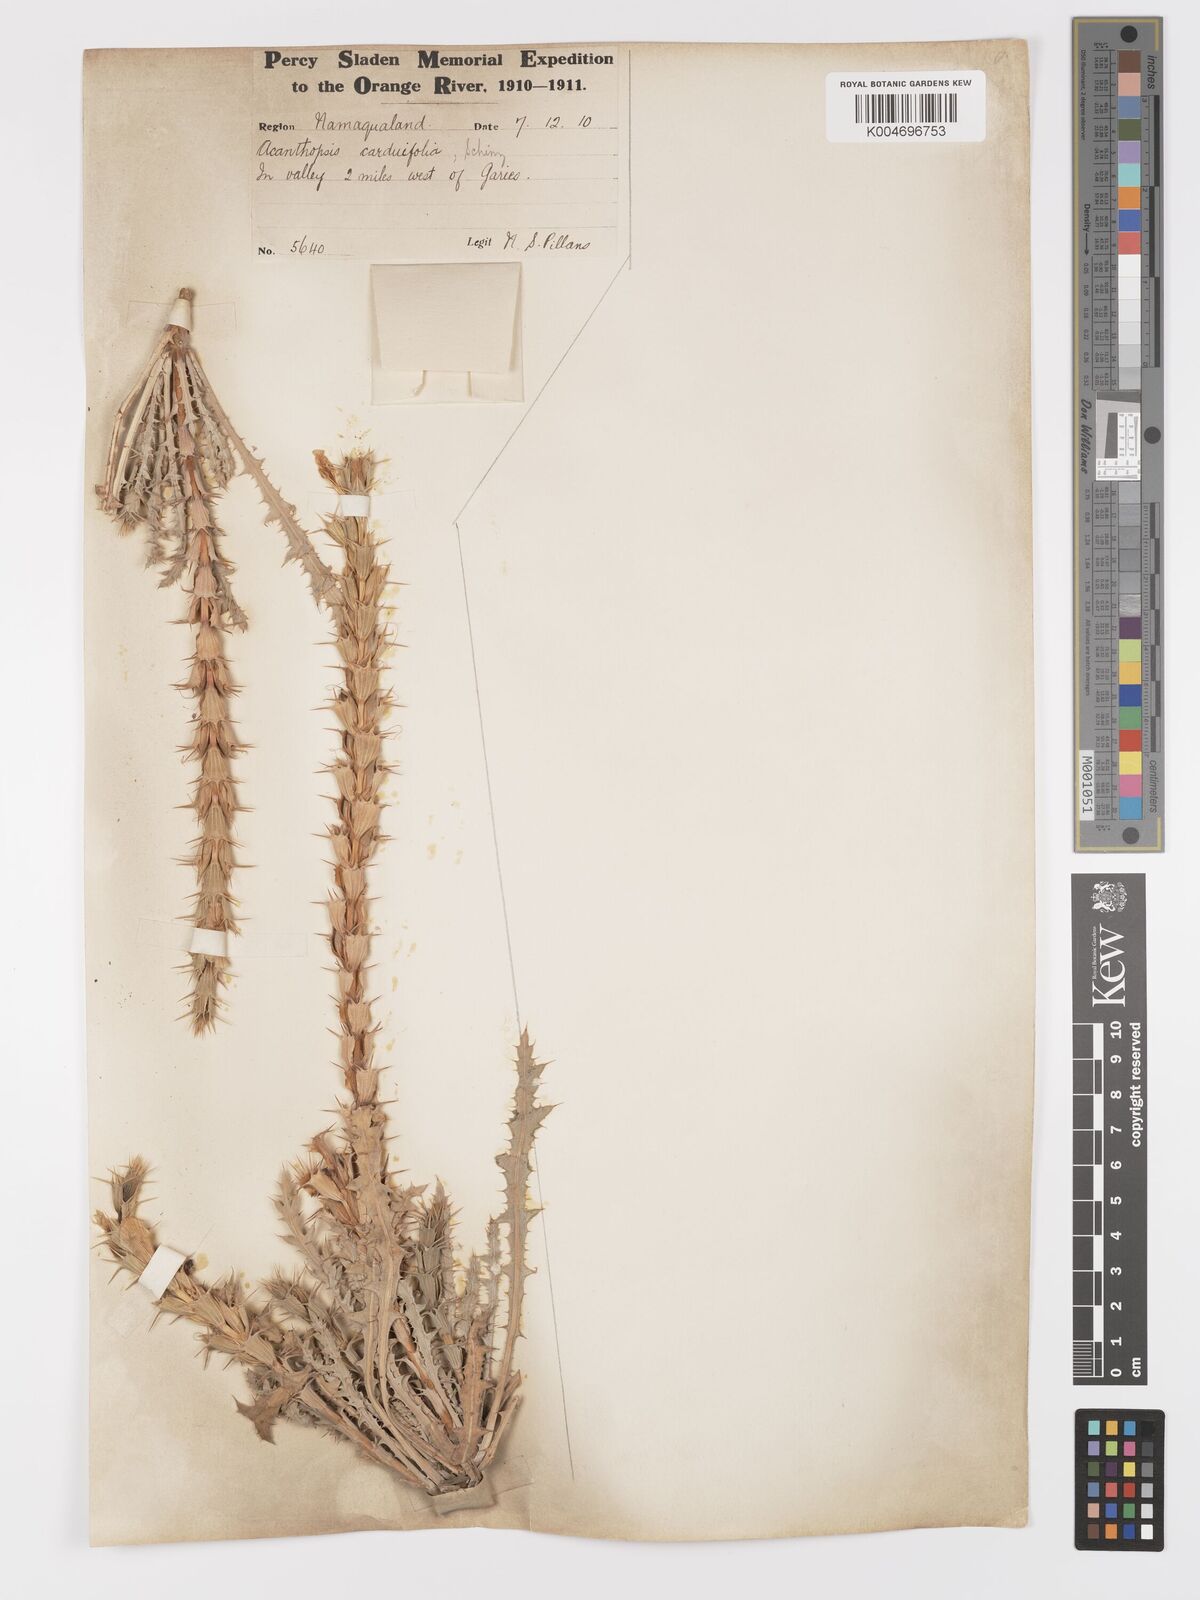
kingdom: Plantae
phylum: Tracheophyta
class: Magnoliopsida
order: Lamiales
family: Acanthaceae
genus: Acanthopsis
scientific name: Acanthopsis carduifolia
